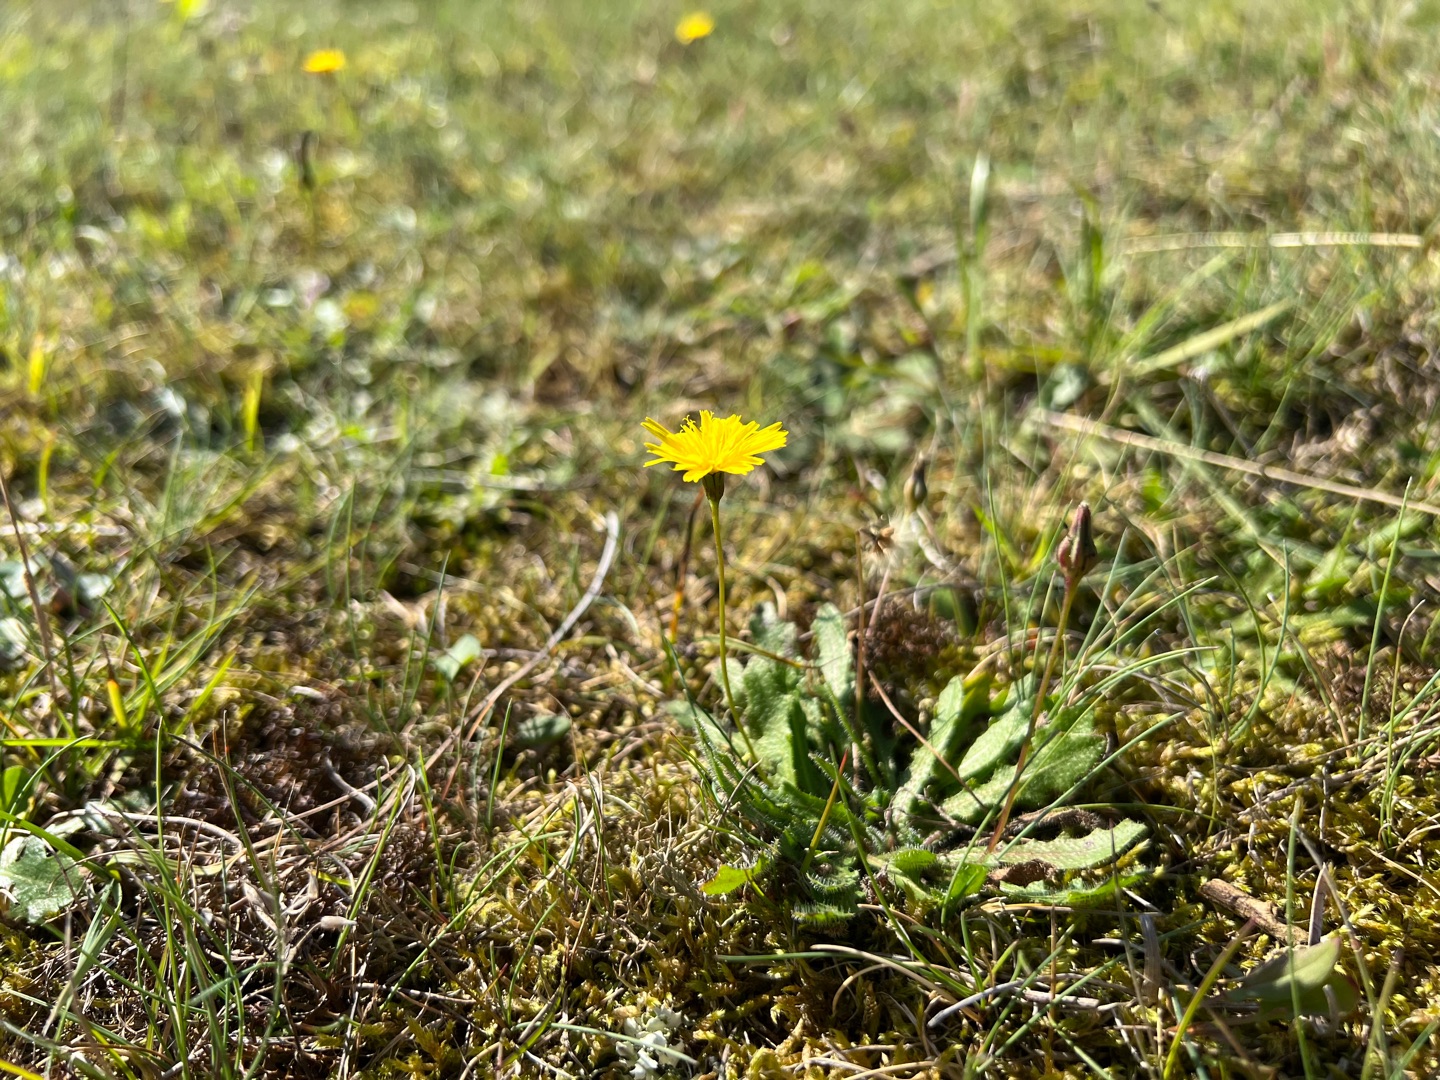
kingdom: Plantae
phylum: Tracheophyta
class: Magnoliopsida
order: Asterales
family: Asteraceae
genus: Thrincia
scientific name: Thrincia saxatilis
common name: Hundesalat
